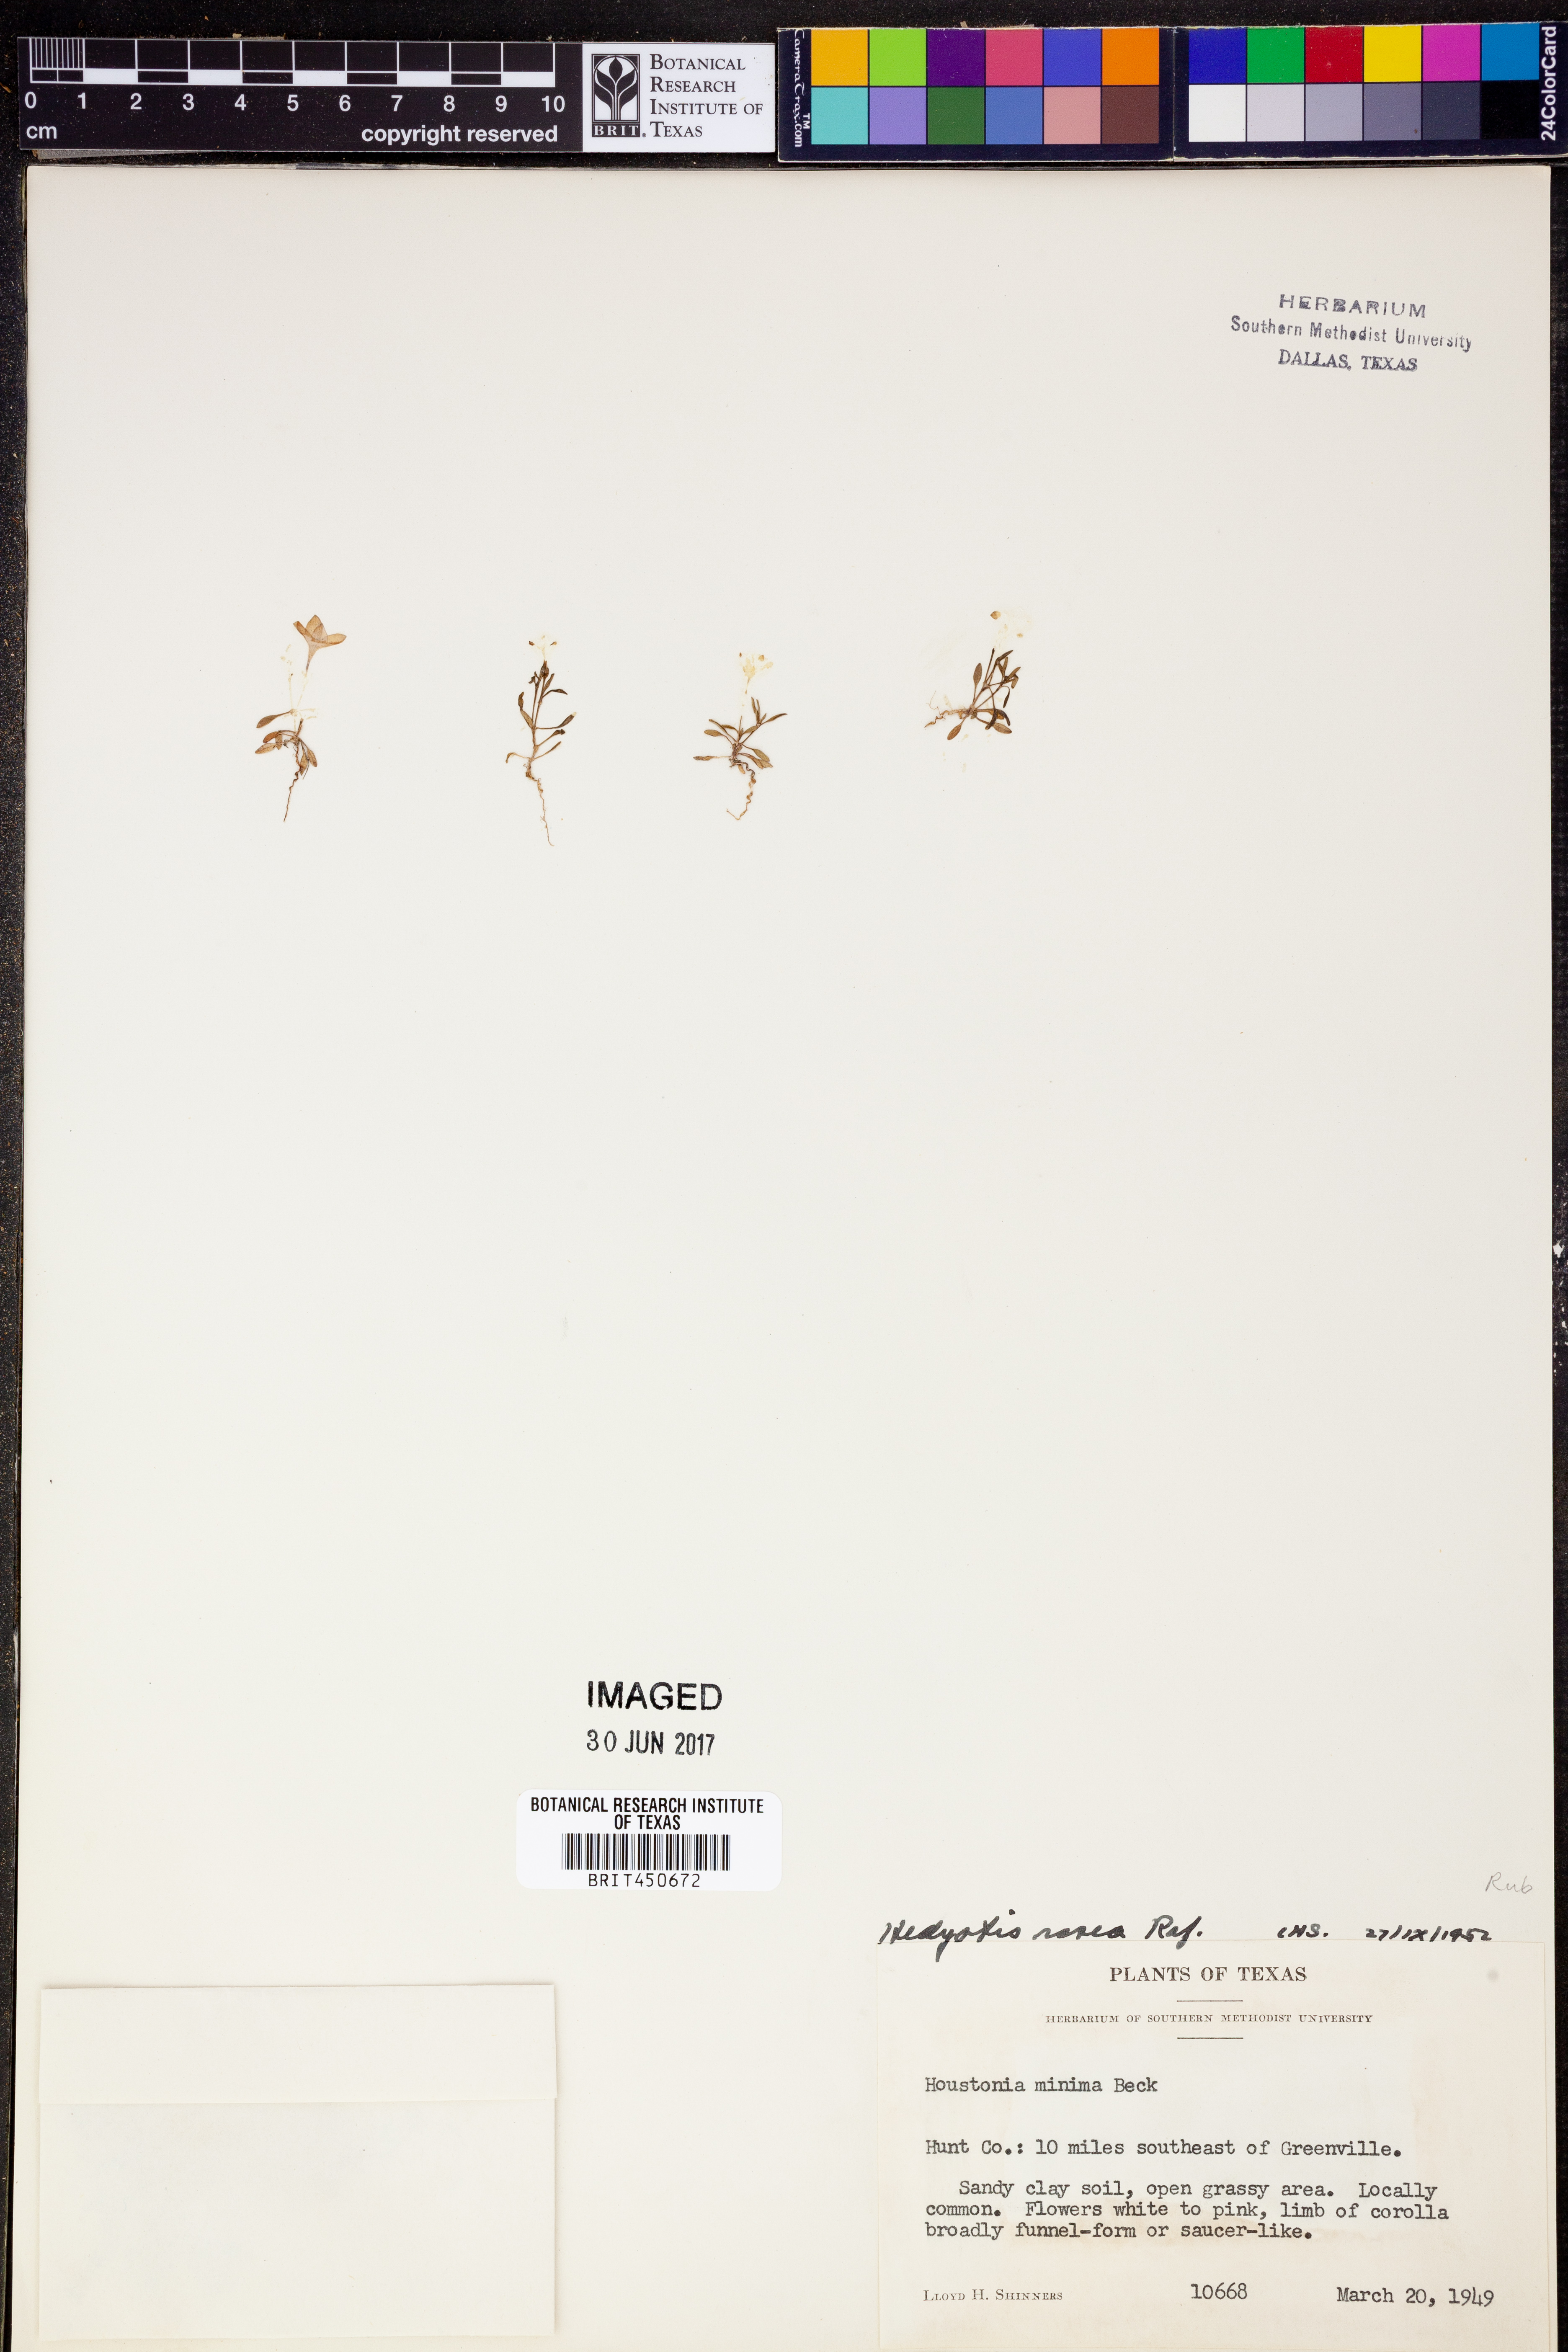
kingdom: Plantae
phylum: Tracheophyta
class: Magnoliopsida
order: Gentianales
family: Rubiaceae
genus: Houstonia
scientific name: Houstonia pusilla
